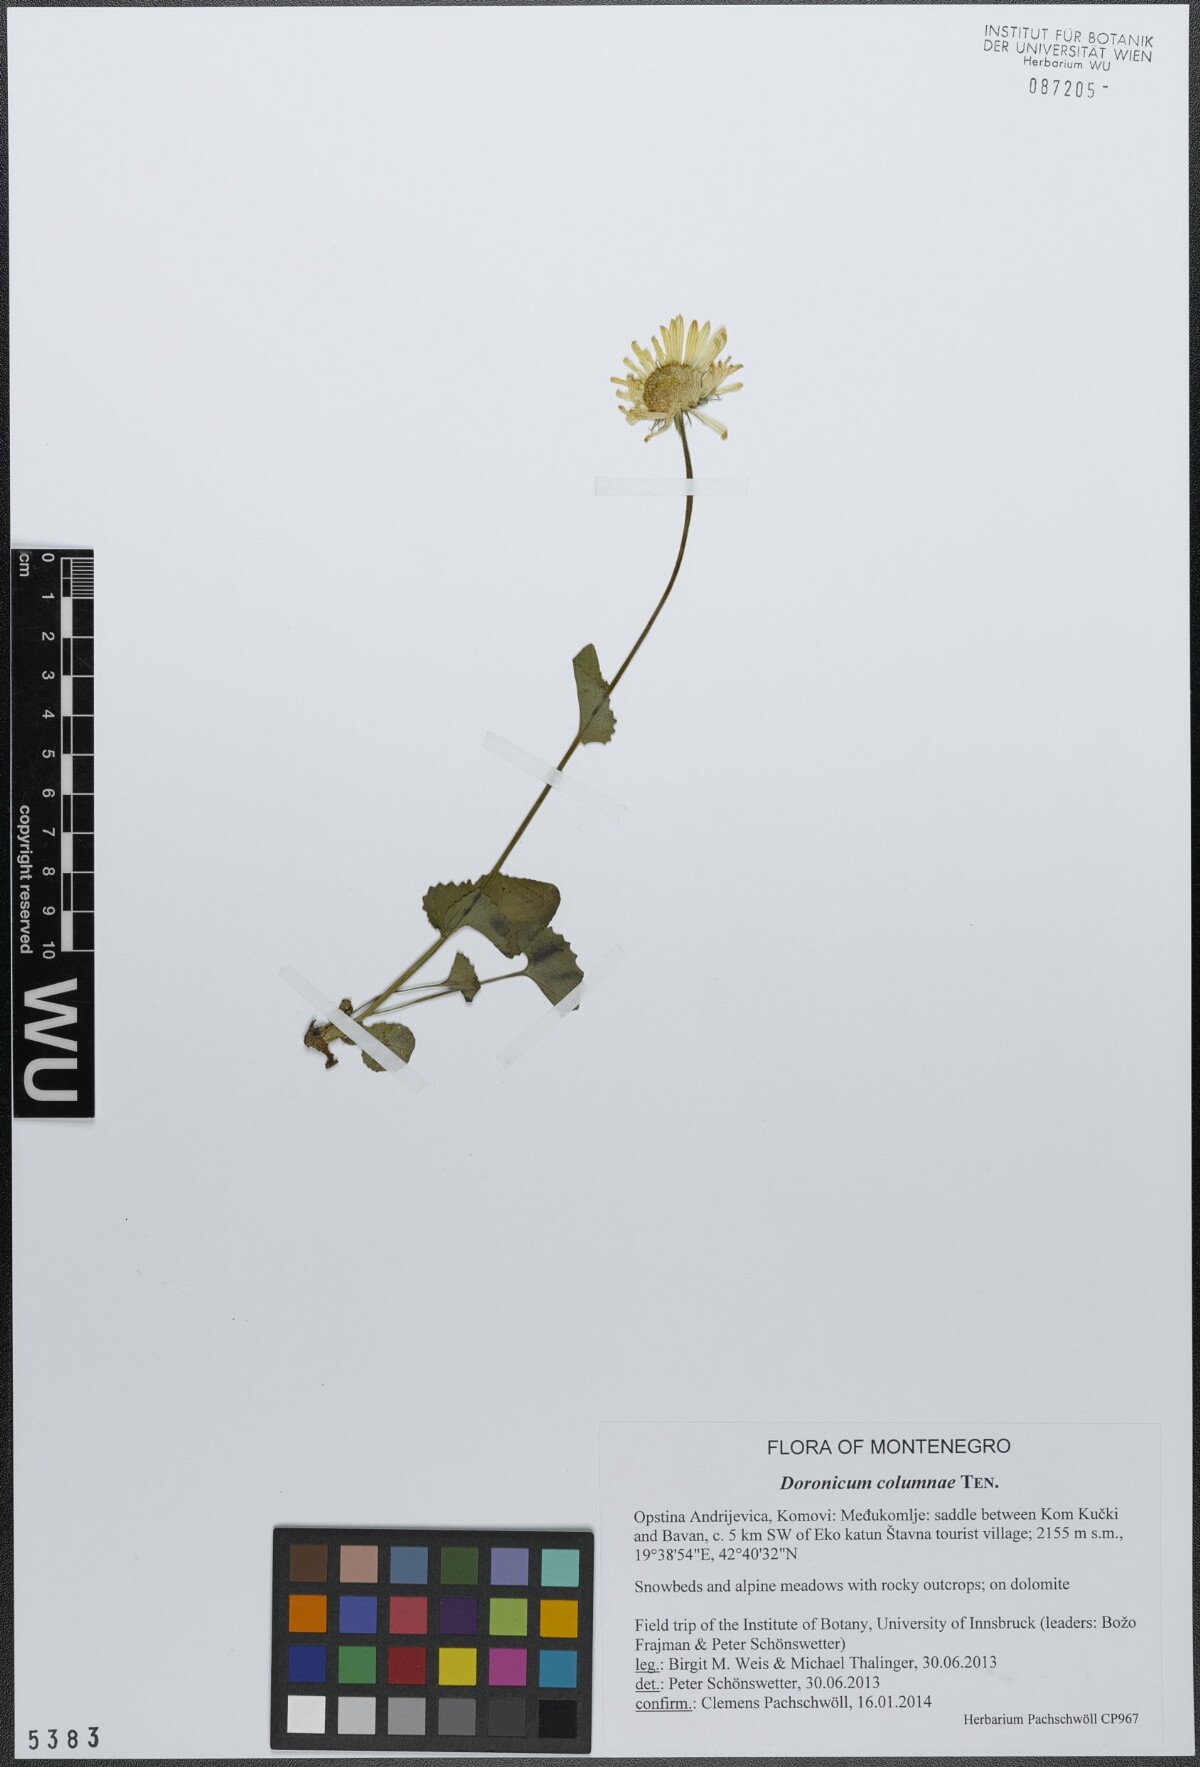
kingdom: Plantae
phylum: Tracheophyta
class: Magnoliopsida
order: Asterales
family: Asteraceae
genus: Doronicum
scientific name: Doronicum columnae
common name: Eastern leopard's-bane
